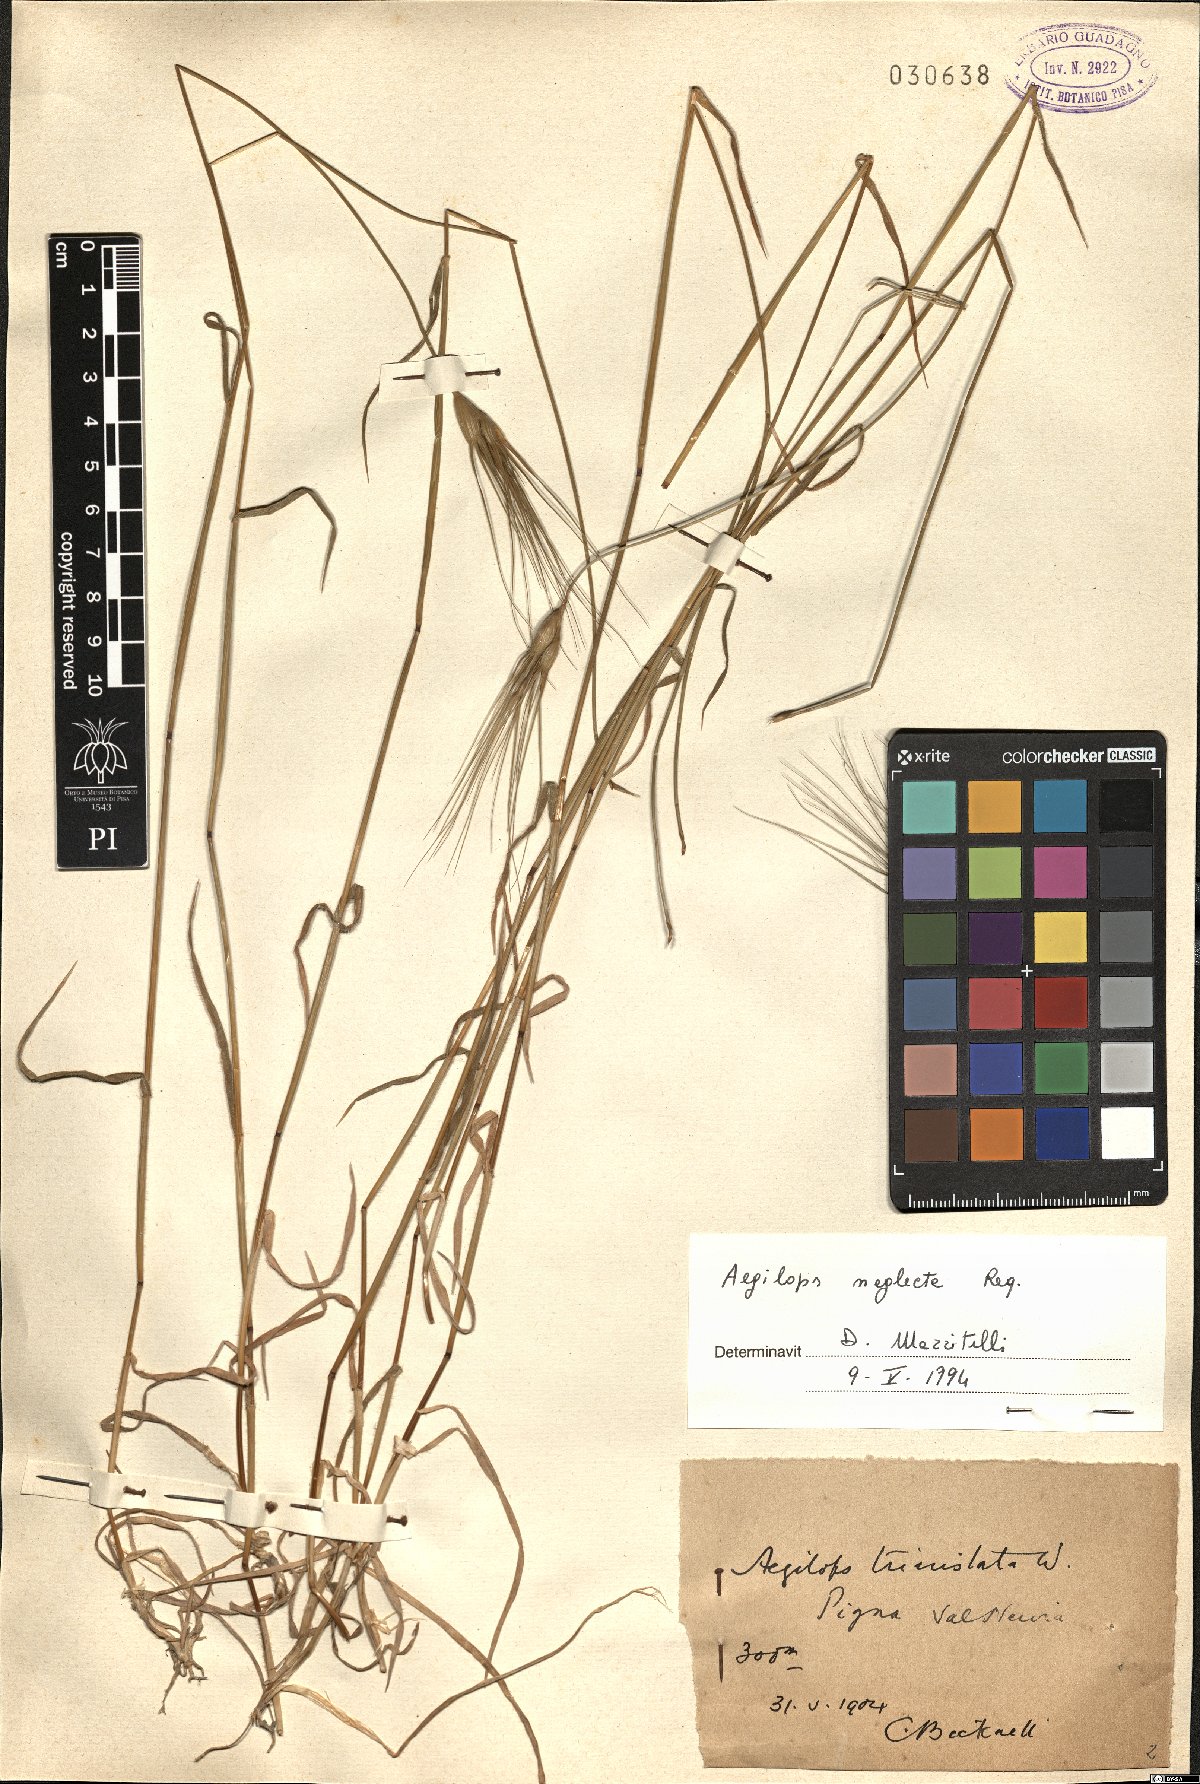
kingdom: Plantae
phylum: Tracheophyta
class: Liliopsida
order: Poales
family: Poaceae
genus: Aegilops
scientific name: Aegilops neglecta
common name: Three-awn goat grass
